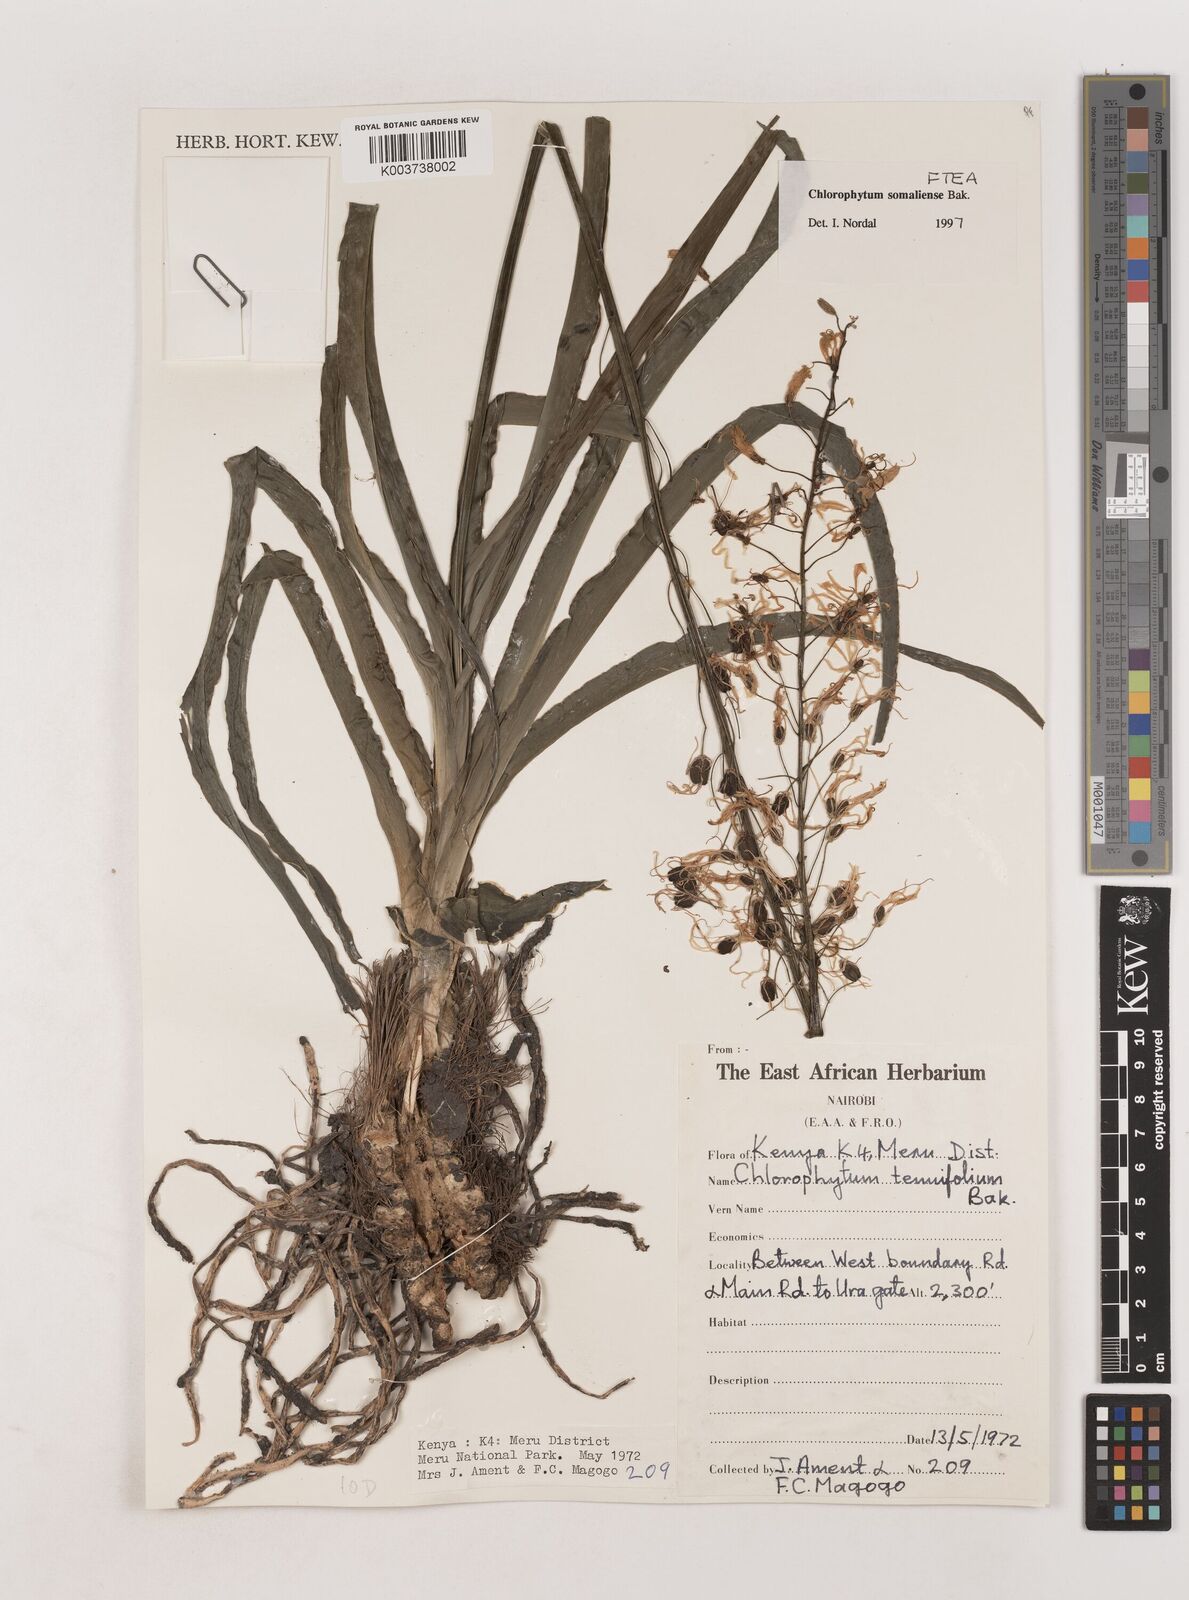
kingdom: Plantae
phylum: Tracheophyta
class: Liliopsida
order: Asparagales
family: Asparagaceae
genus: Chlorophytum
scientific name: Chlorophytum somaliense
